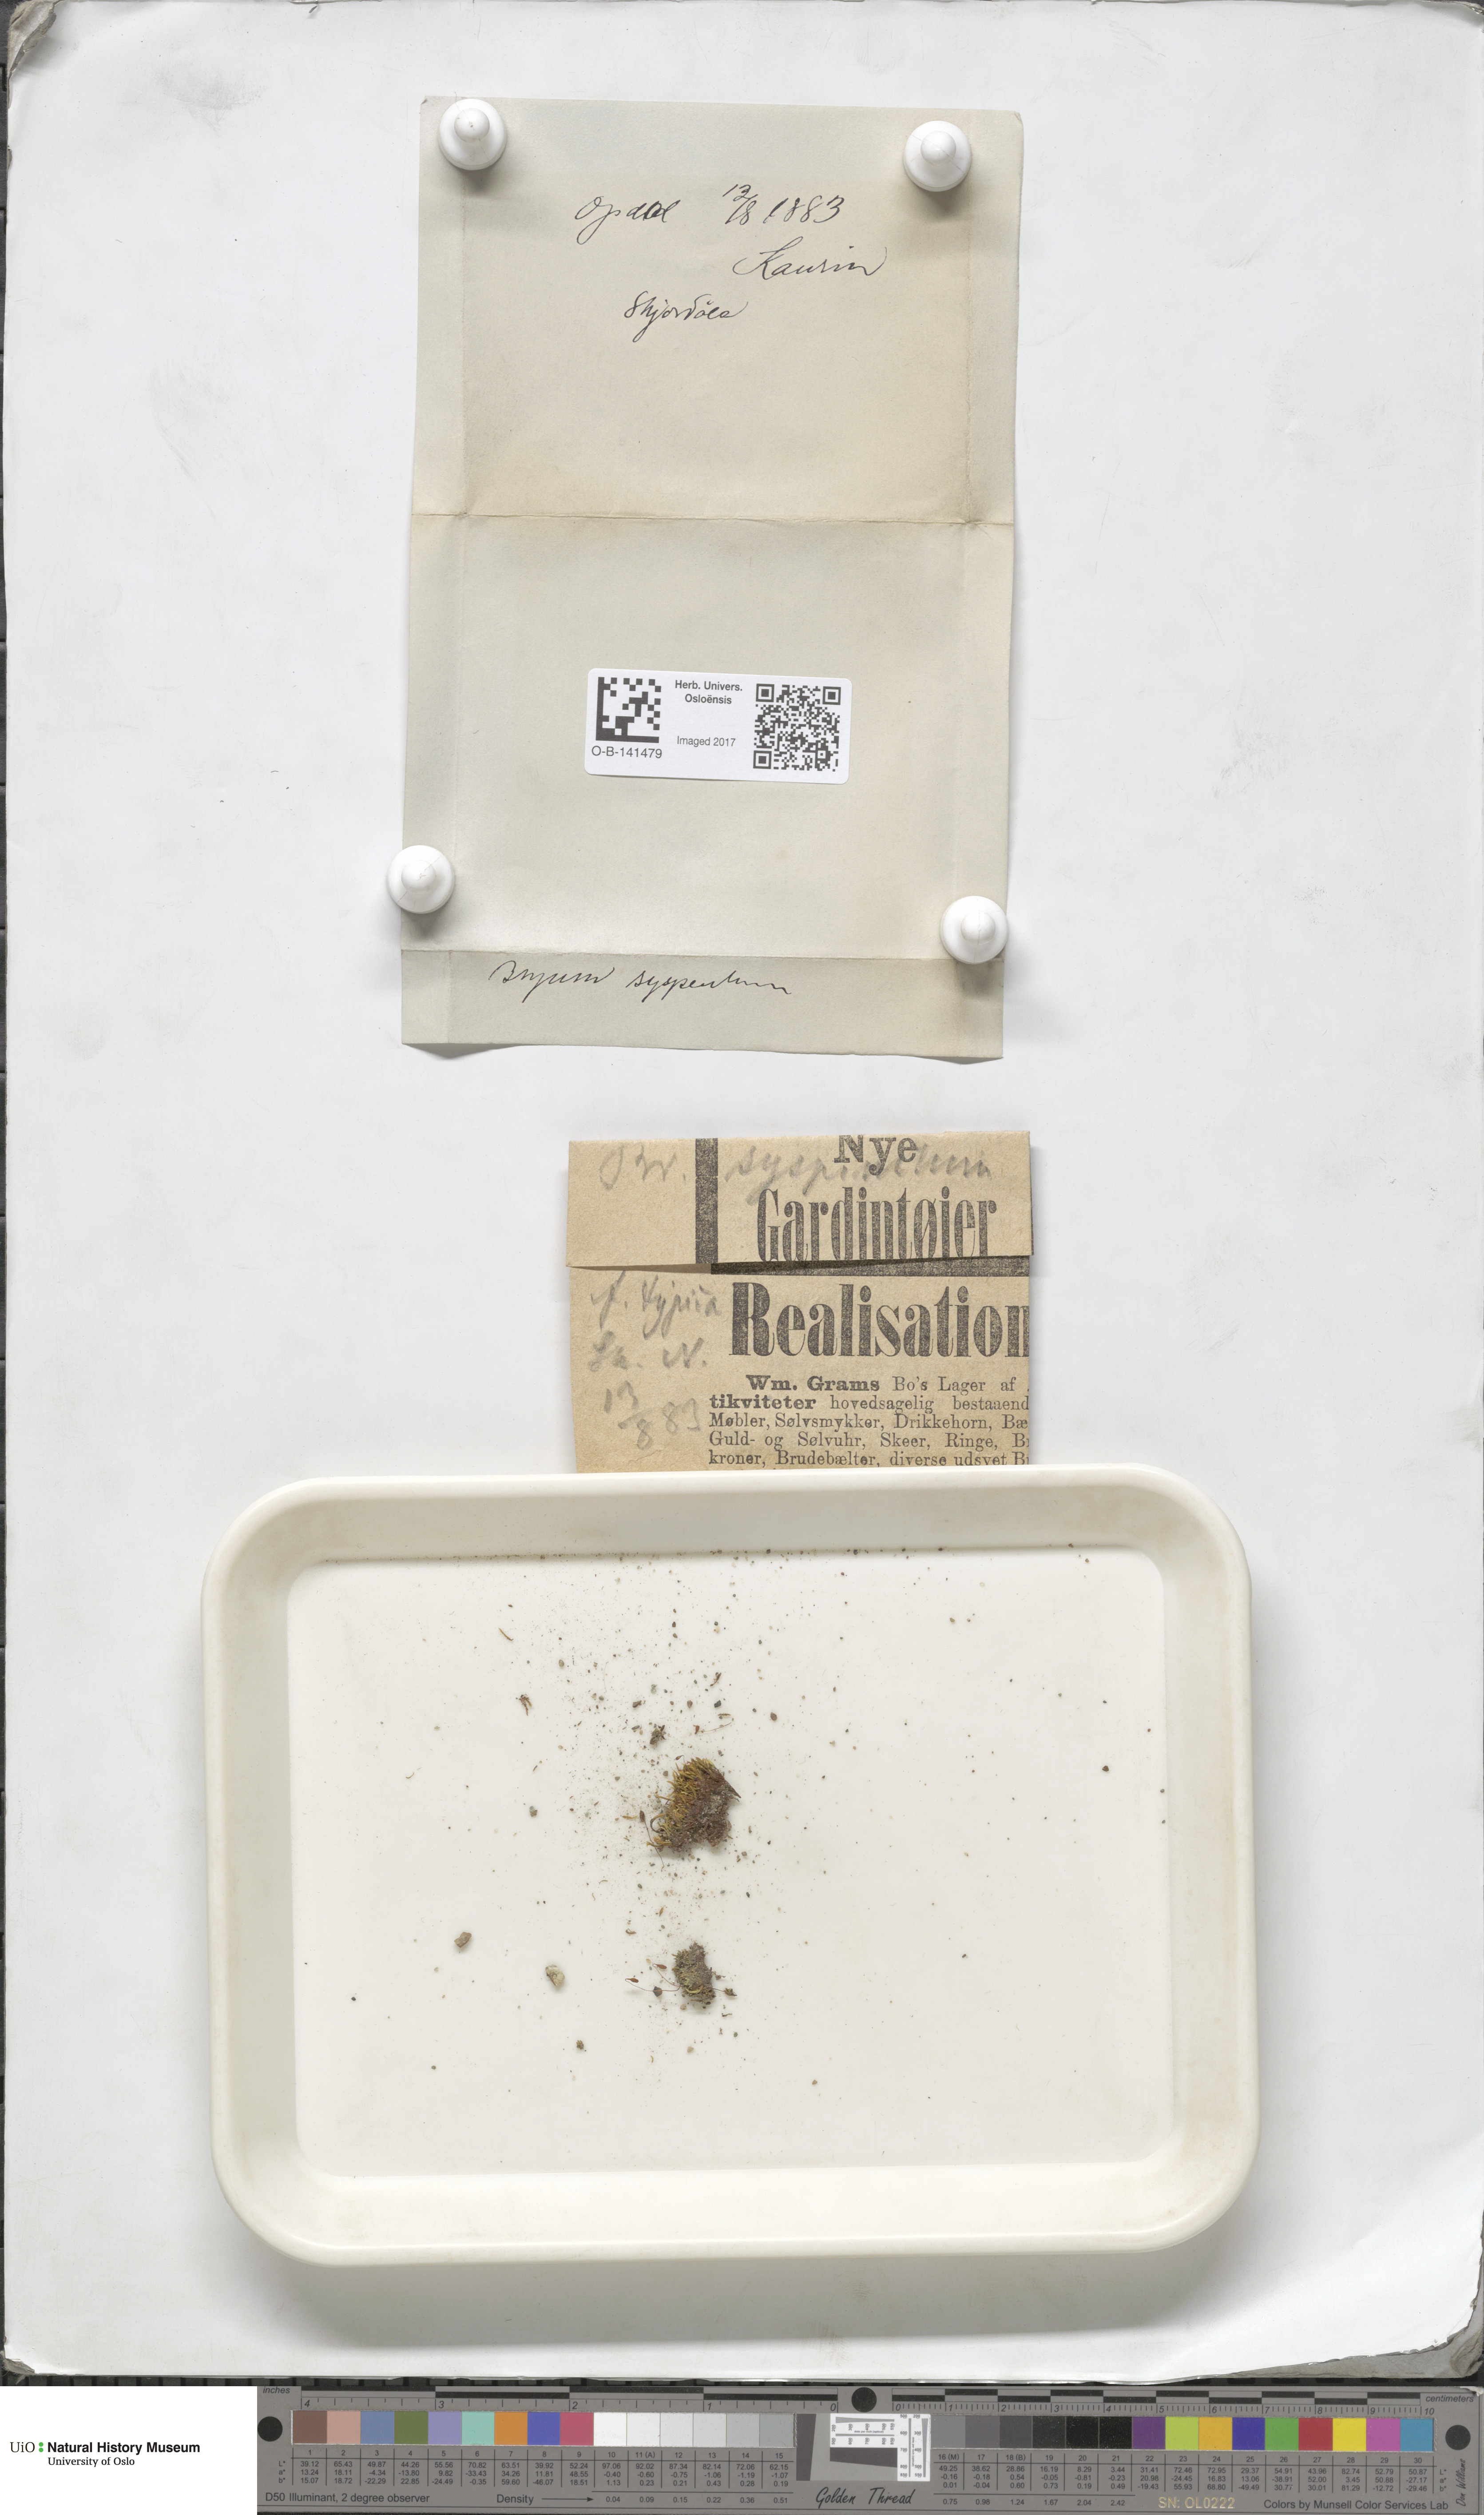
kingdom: Plantae
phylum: Bryophyta
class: Bryopsida
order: Bryales
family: Bryaceae
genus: Ptychostomum
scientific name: Ptychostomum pallescens
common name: Tall-clustered thread-moss
